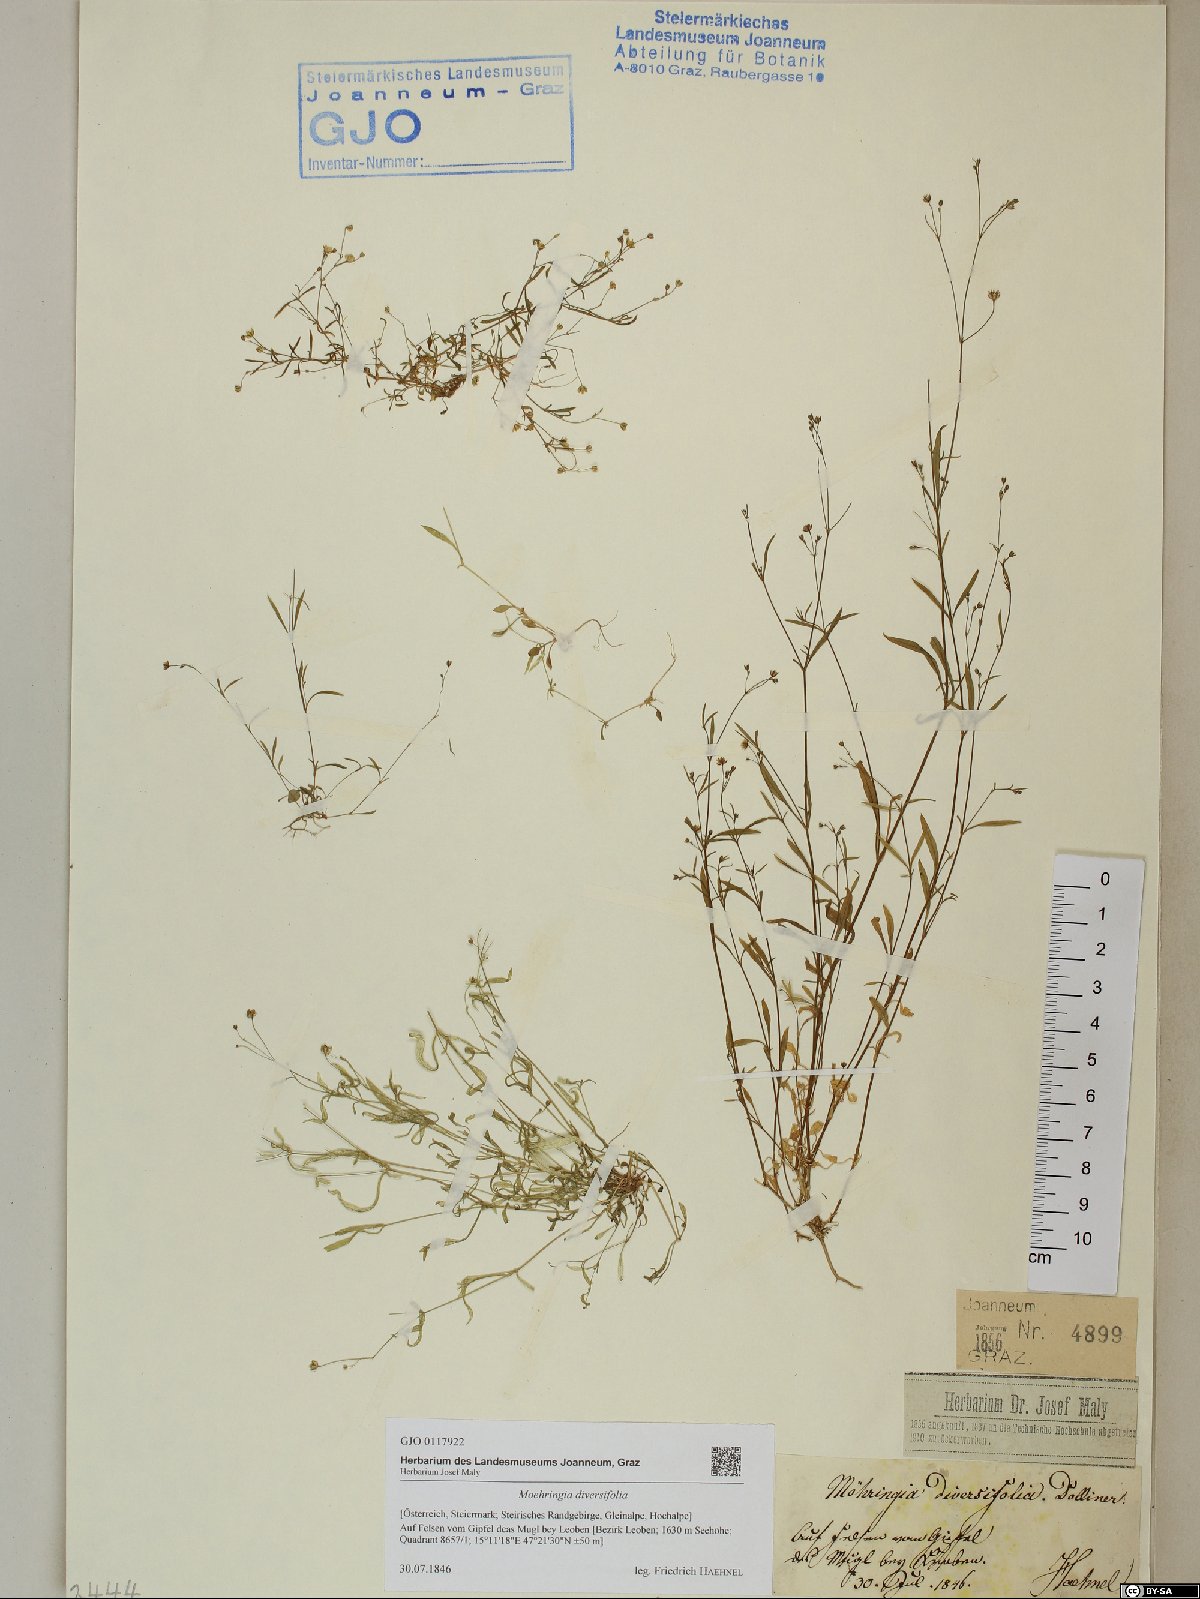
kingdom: Plantae
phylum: Tracheophyta
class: Magnoliopsida
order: Caryophyllales
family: Caryophyllaceae
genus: Moehringia
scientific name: Moehringia diversifolia
